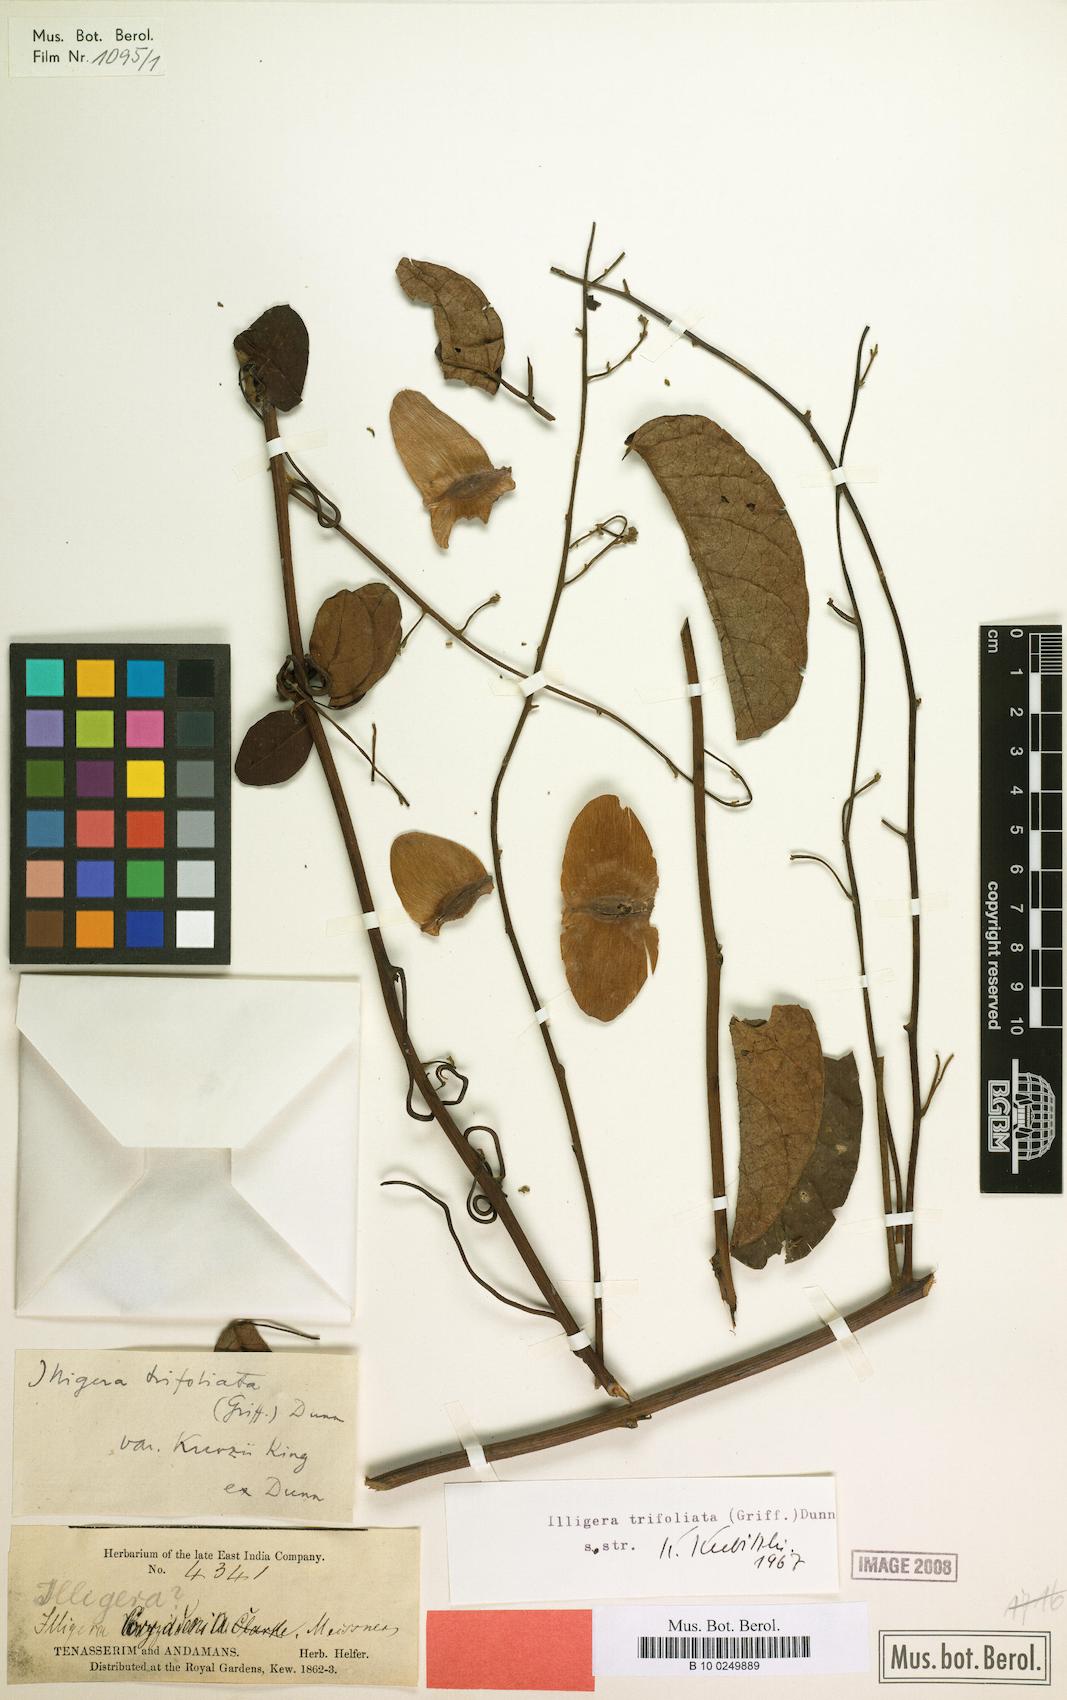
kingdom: Plantae
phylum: Tracheophyta
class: Magnoliopsida
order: Laurales
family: Hernandiaceae
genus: Illigera
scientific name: Illigera trifoliata
